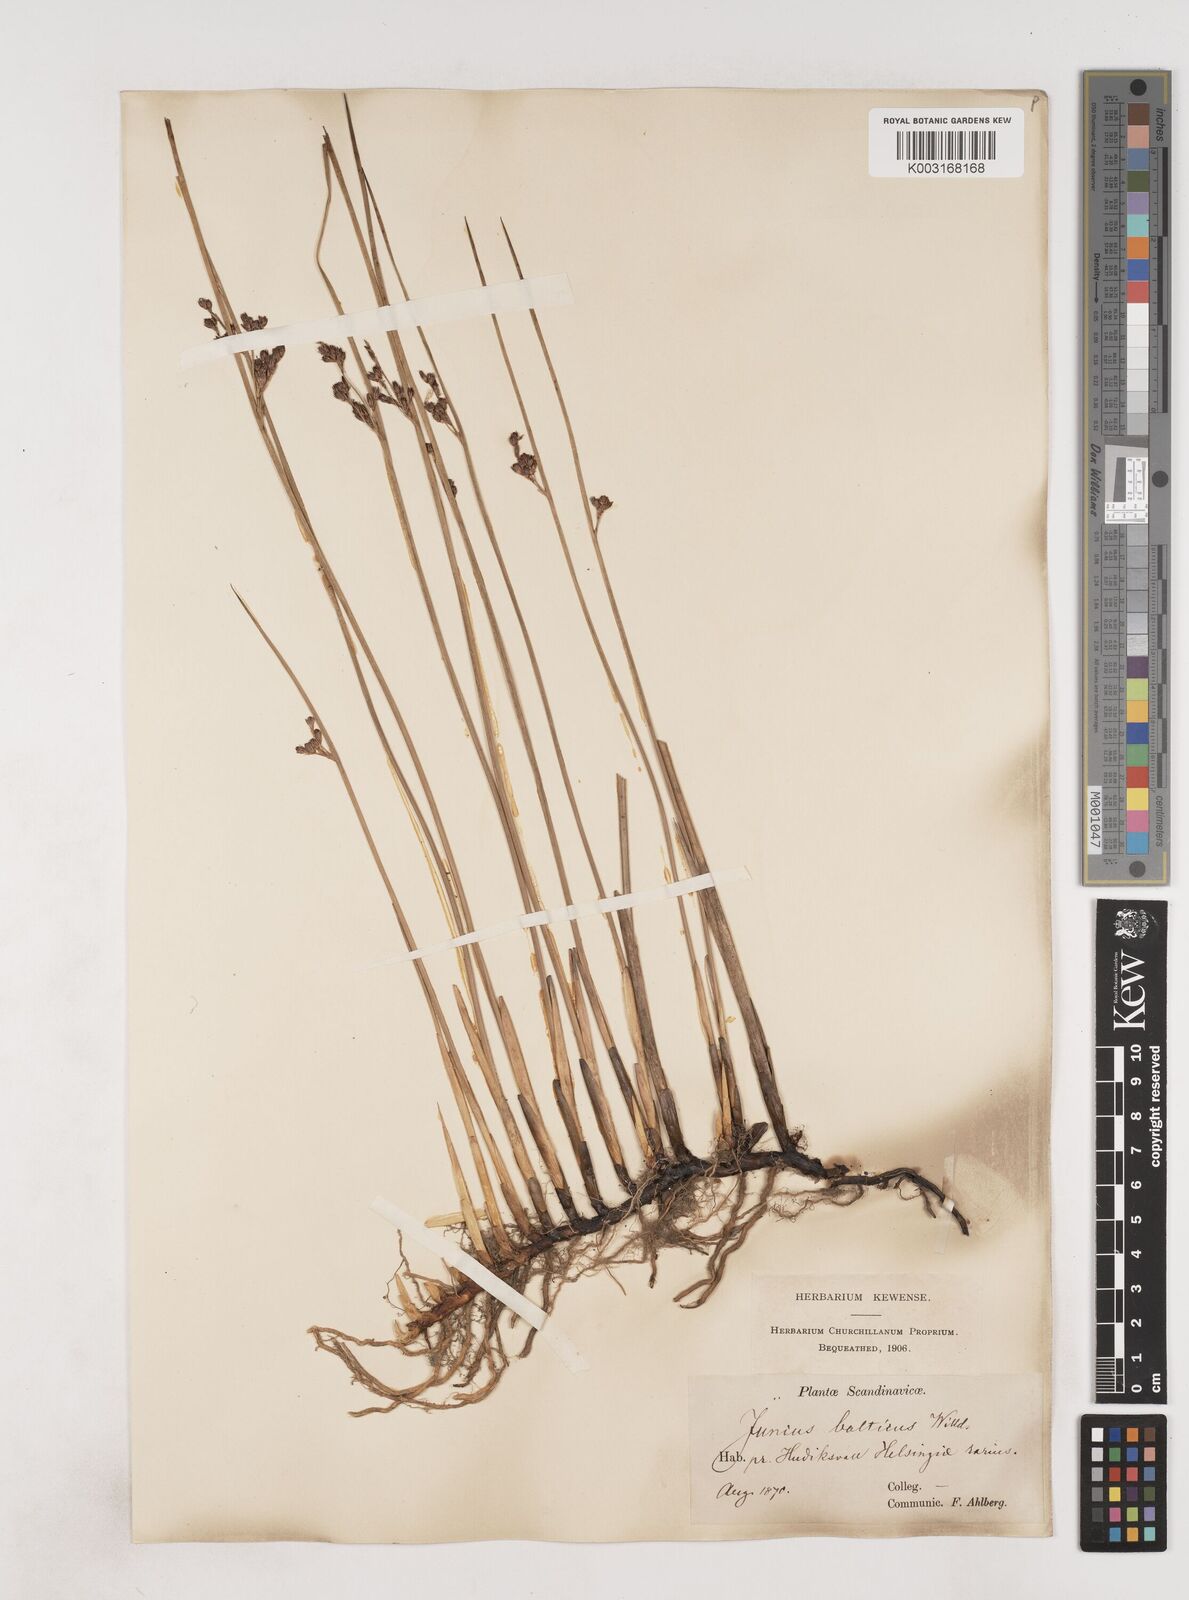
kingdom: Plantae
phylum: Tracheophyta
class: Liliopsida
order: Poales
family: Juncaceae
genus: Juncus
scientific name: Juncus balticus
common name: Baltic rush
